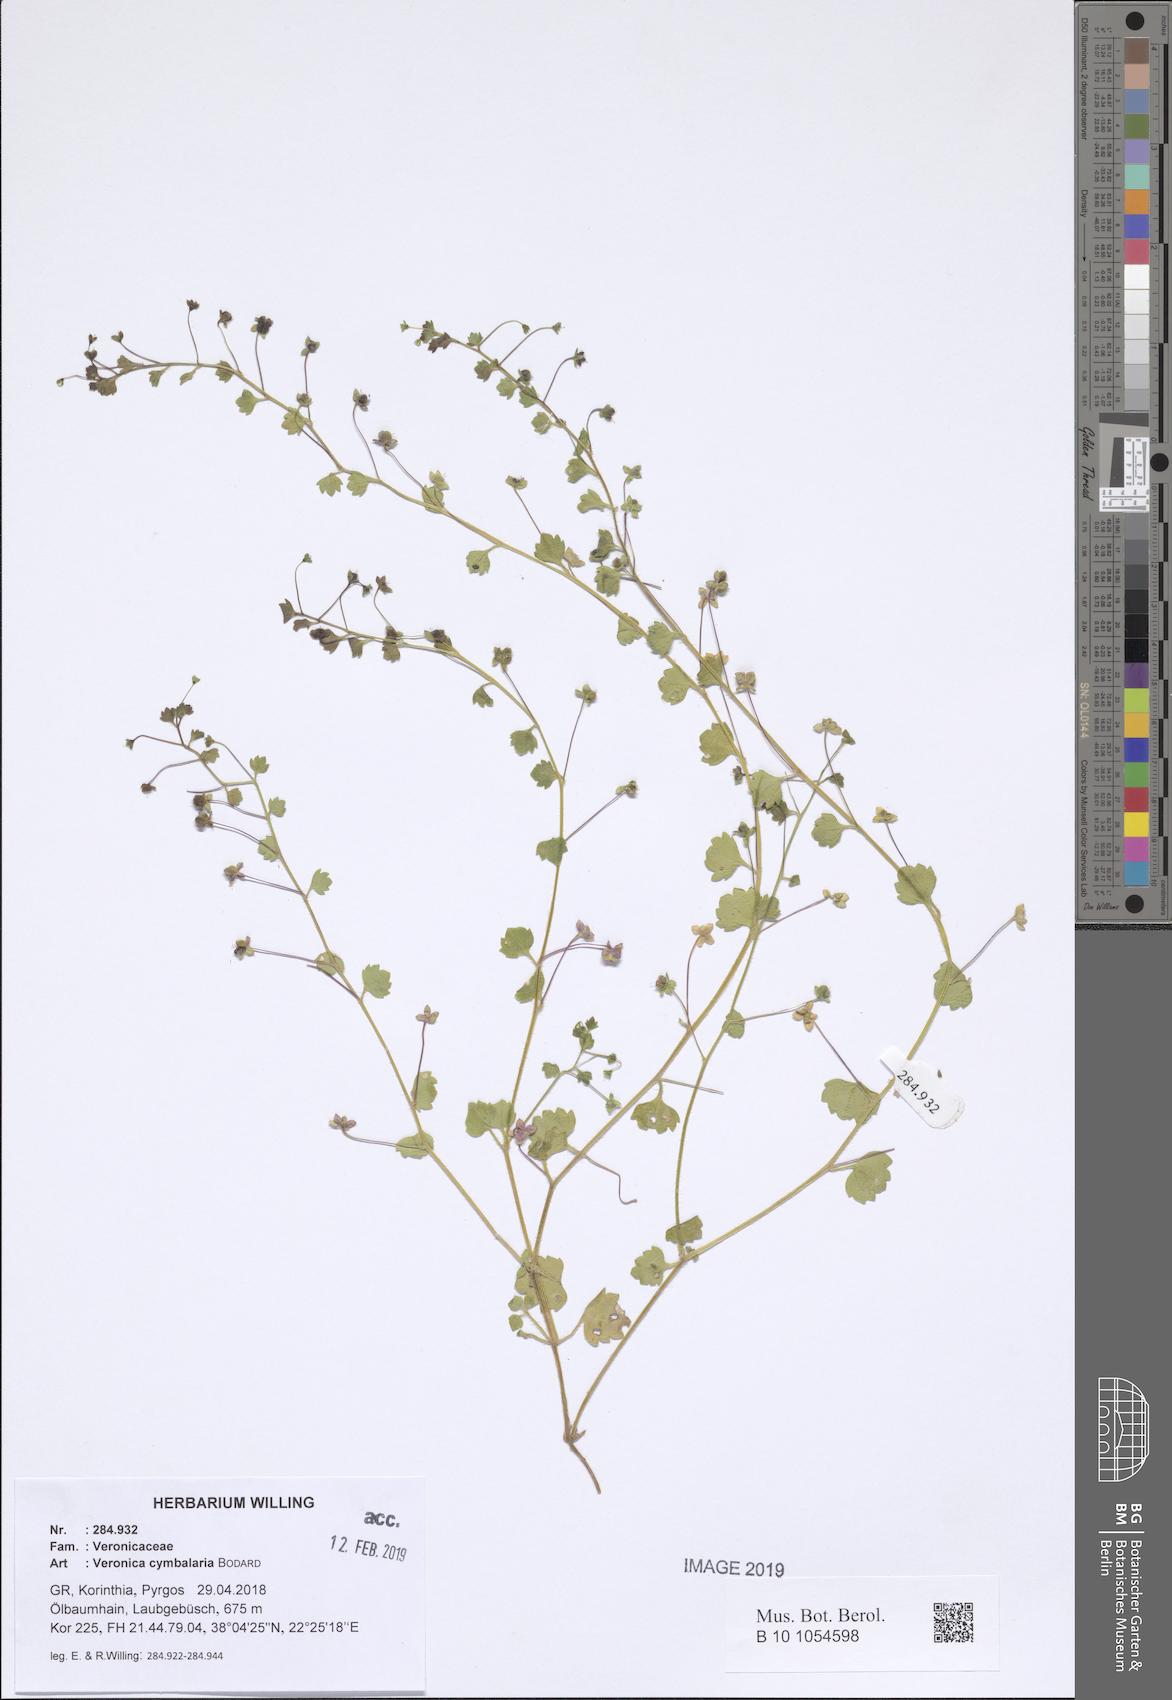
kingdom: Plantae
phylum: Tracheophyta
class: Magnoliopsida
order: Lamiales
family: Plantaginaceae
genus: Veronica
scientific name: Veronica cymbalaria
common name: Pale speedwell
